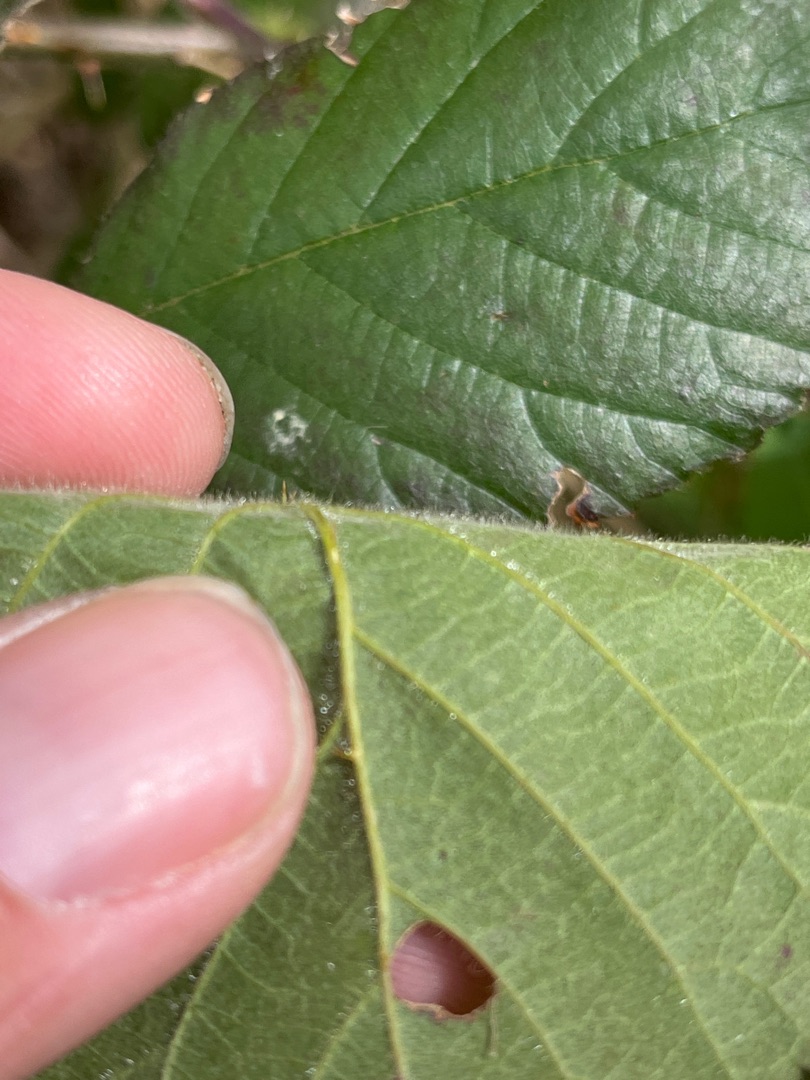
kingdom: Plantae
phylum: Tracheophyta
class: Magnoliopsida
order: Rosales
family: Rosaceae
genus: Rubus
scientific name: Rubus vestitus
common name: Rundbladet brombær
